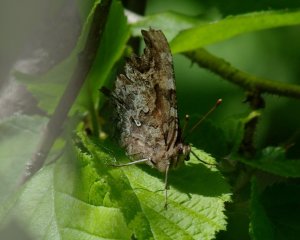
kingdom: Animalia
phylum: Arthropoda
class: Insecta
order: Lepidoptera
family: Nymphalidae
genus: Polygonia
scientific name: Polygonia faunus
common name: Green Comma
